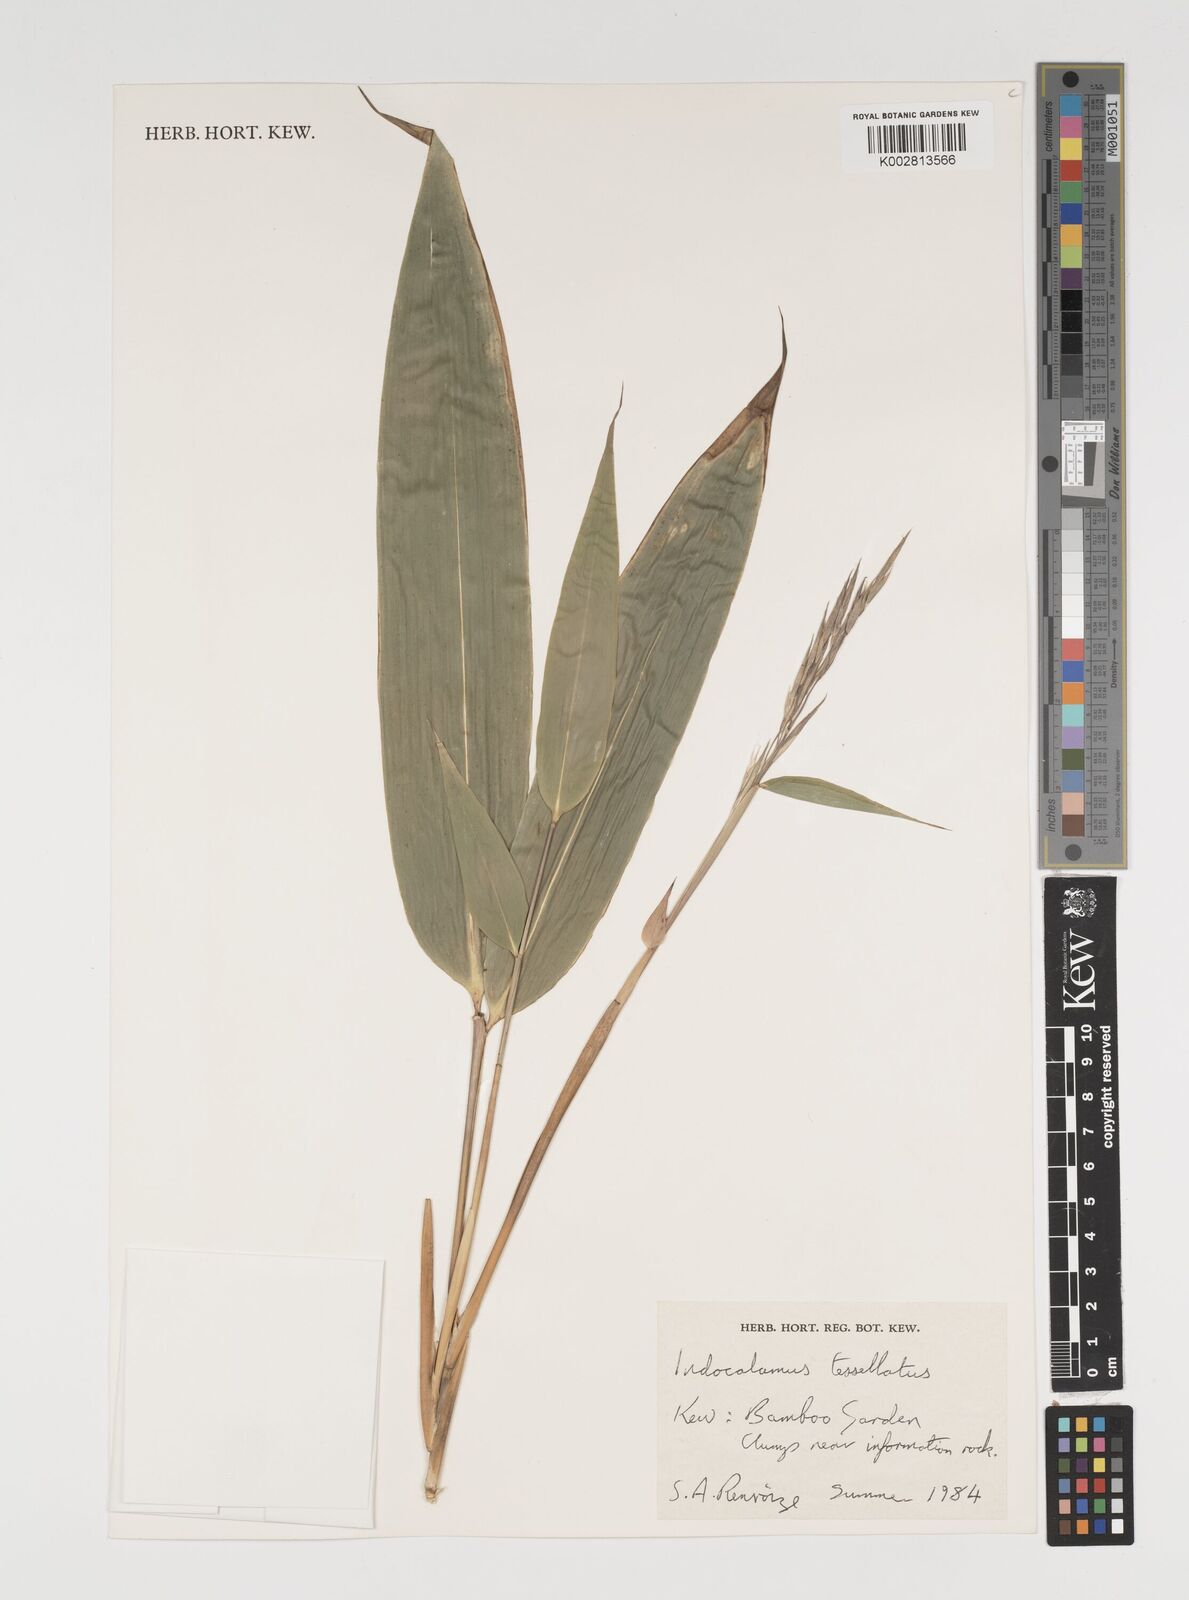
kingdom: Plantae
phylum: Tracheophyta
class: Liliopsida
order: Poales
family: Poaceae
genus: Indocalamus
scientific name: Indocalamus tessellatus
